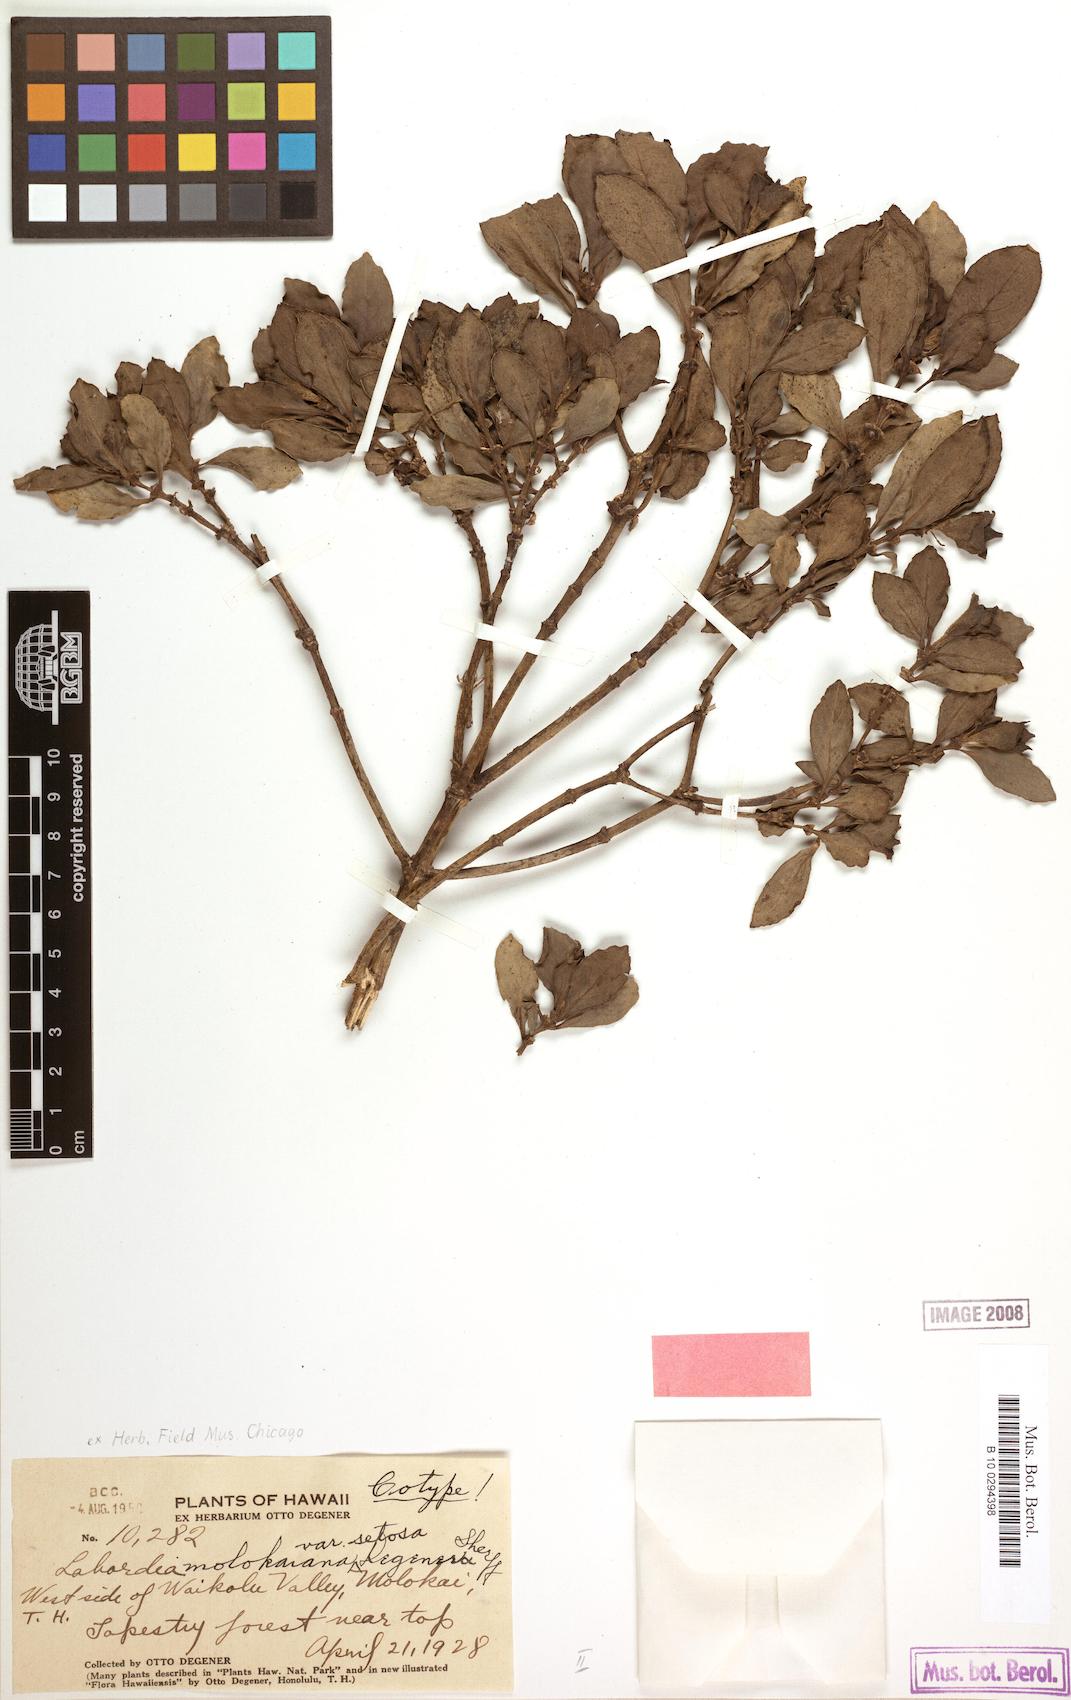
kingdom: Plantae
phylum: Tracheophyta
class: Magnoliopsida
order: Gentianales
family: Loganiaceae
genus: Geniostoma
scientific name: Geniostoma waiolani
